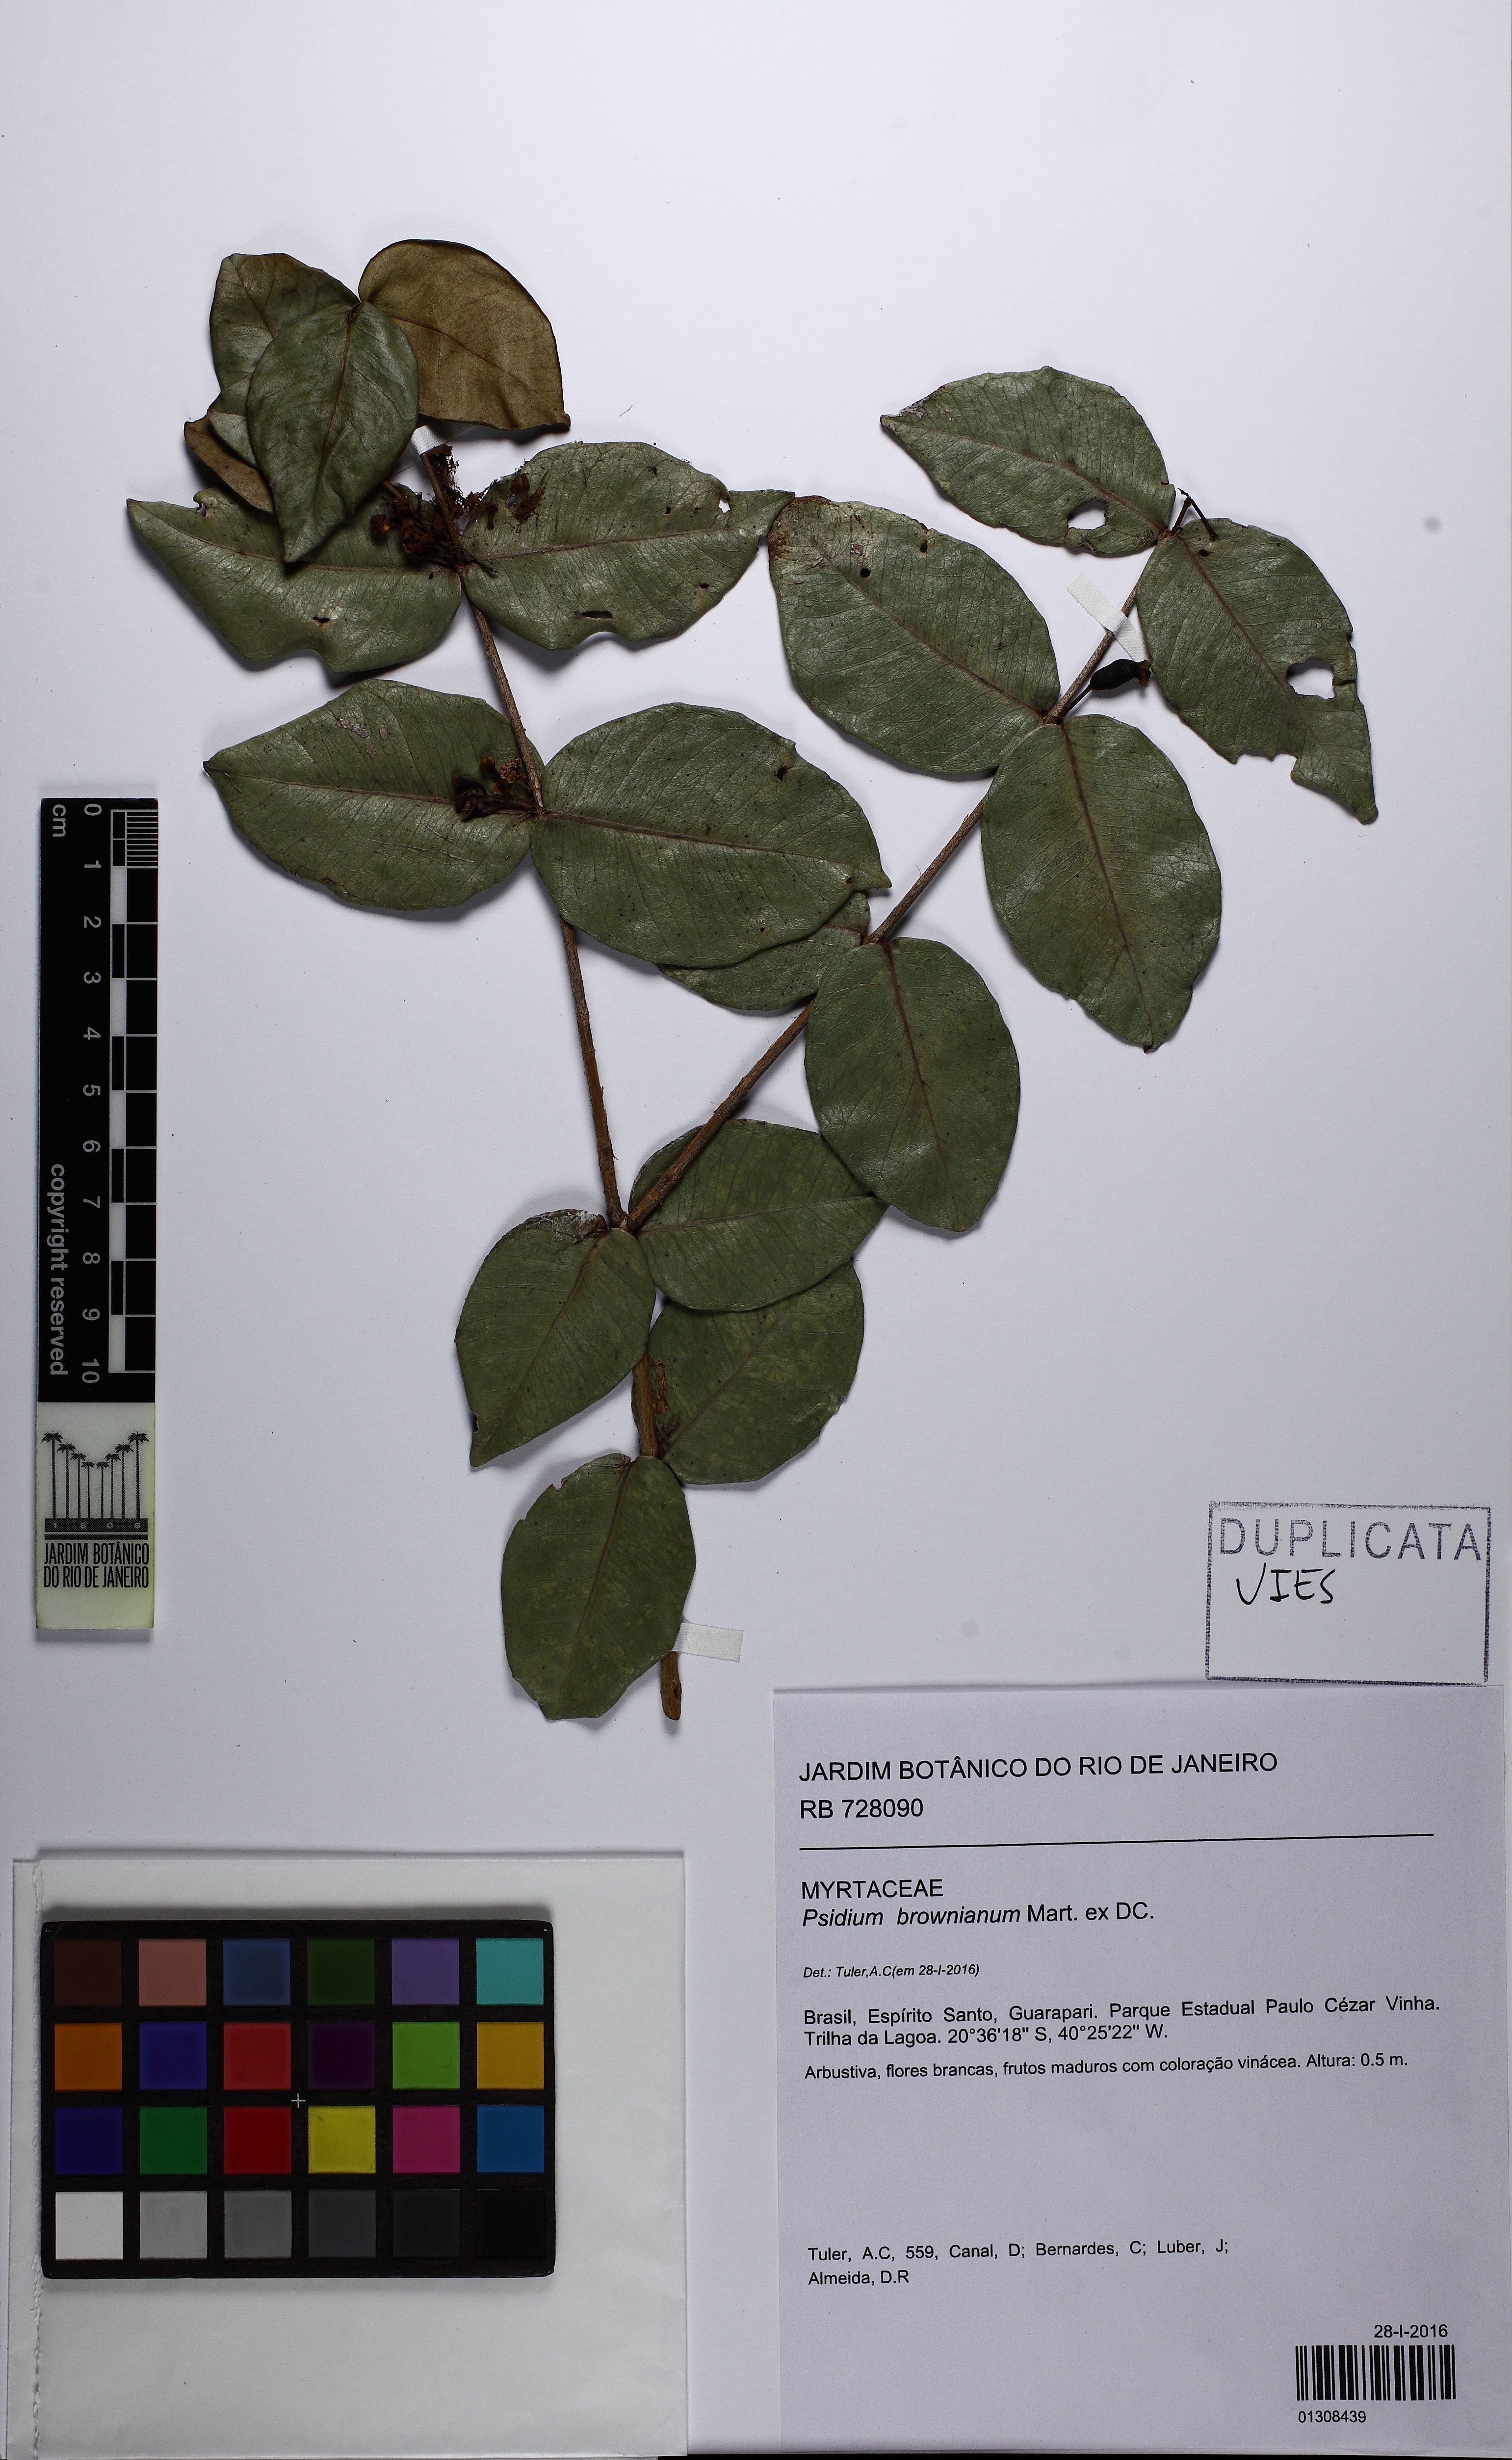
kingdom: Plantae
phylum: Tracheophyta
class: Magnoliopsida
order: Myrtales
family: Myrtaceae
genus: Psidium
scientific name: Psidium brownianum
